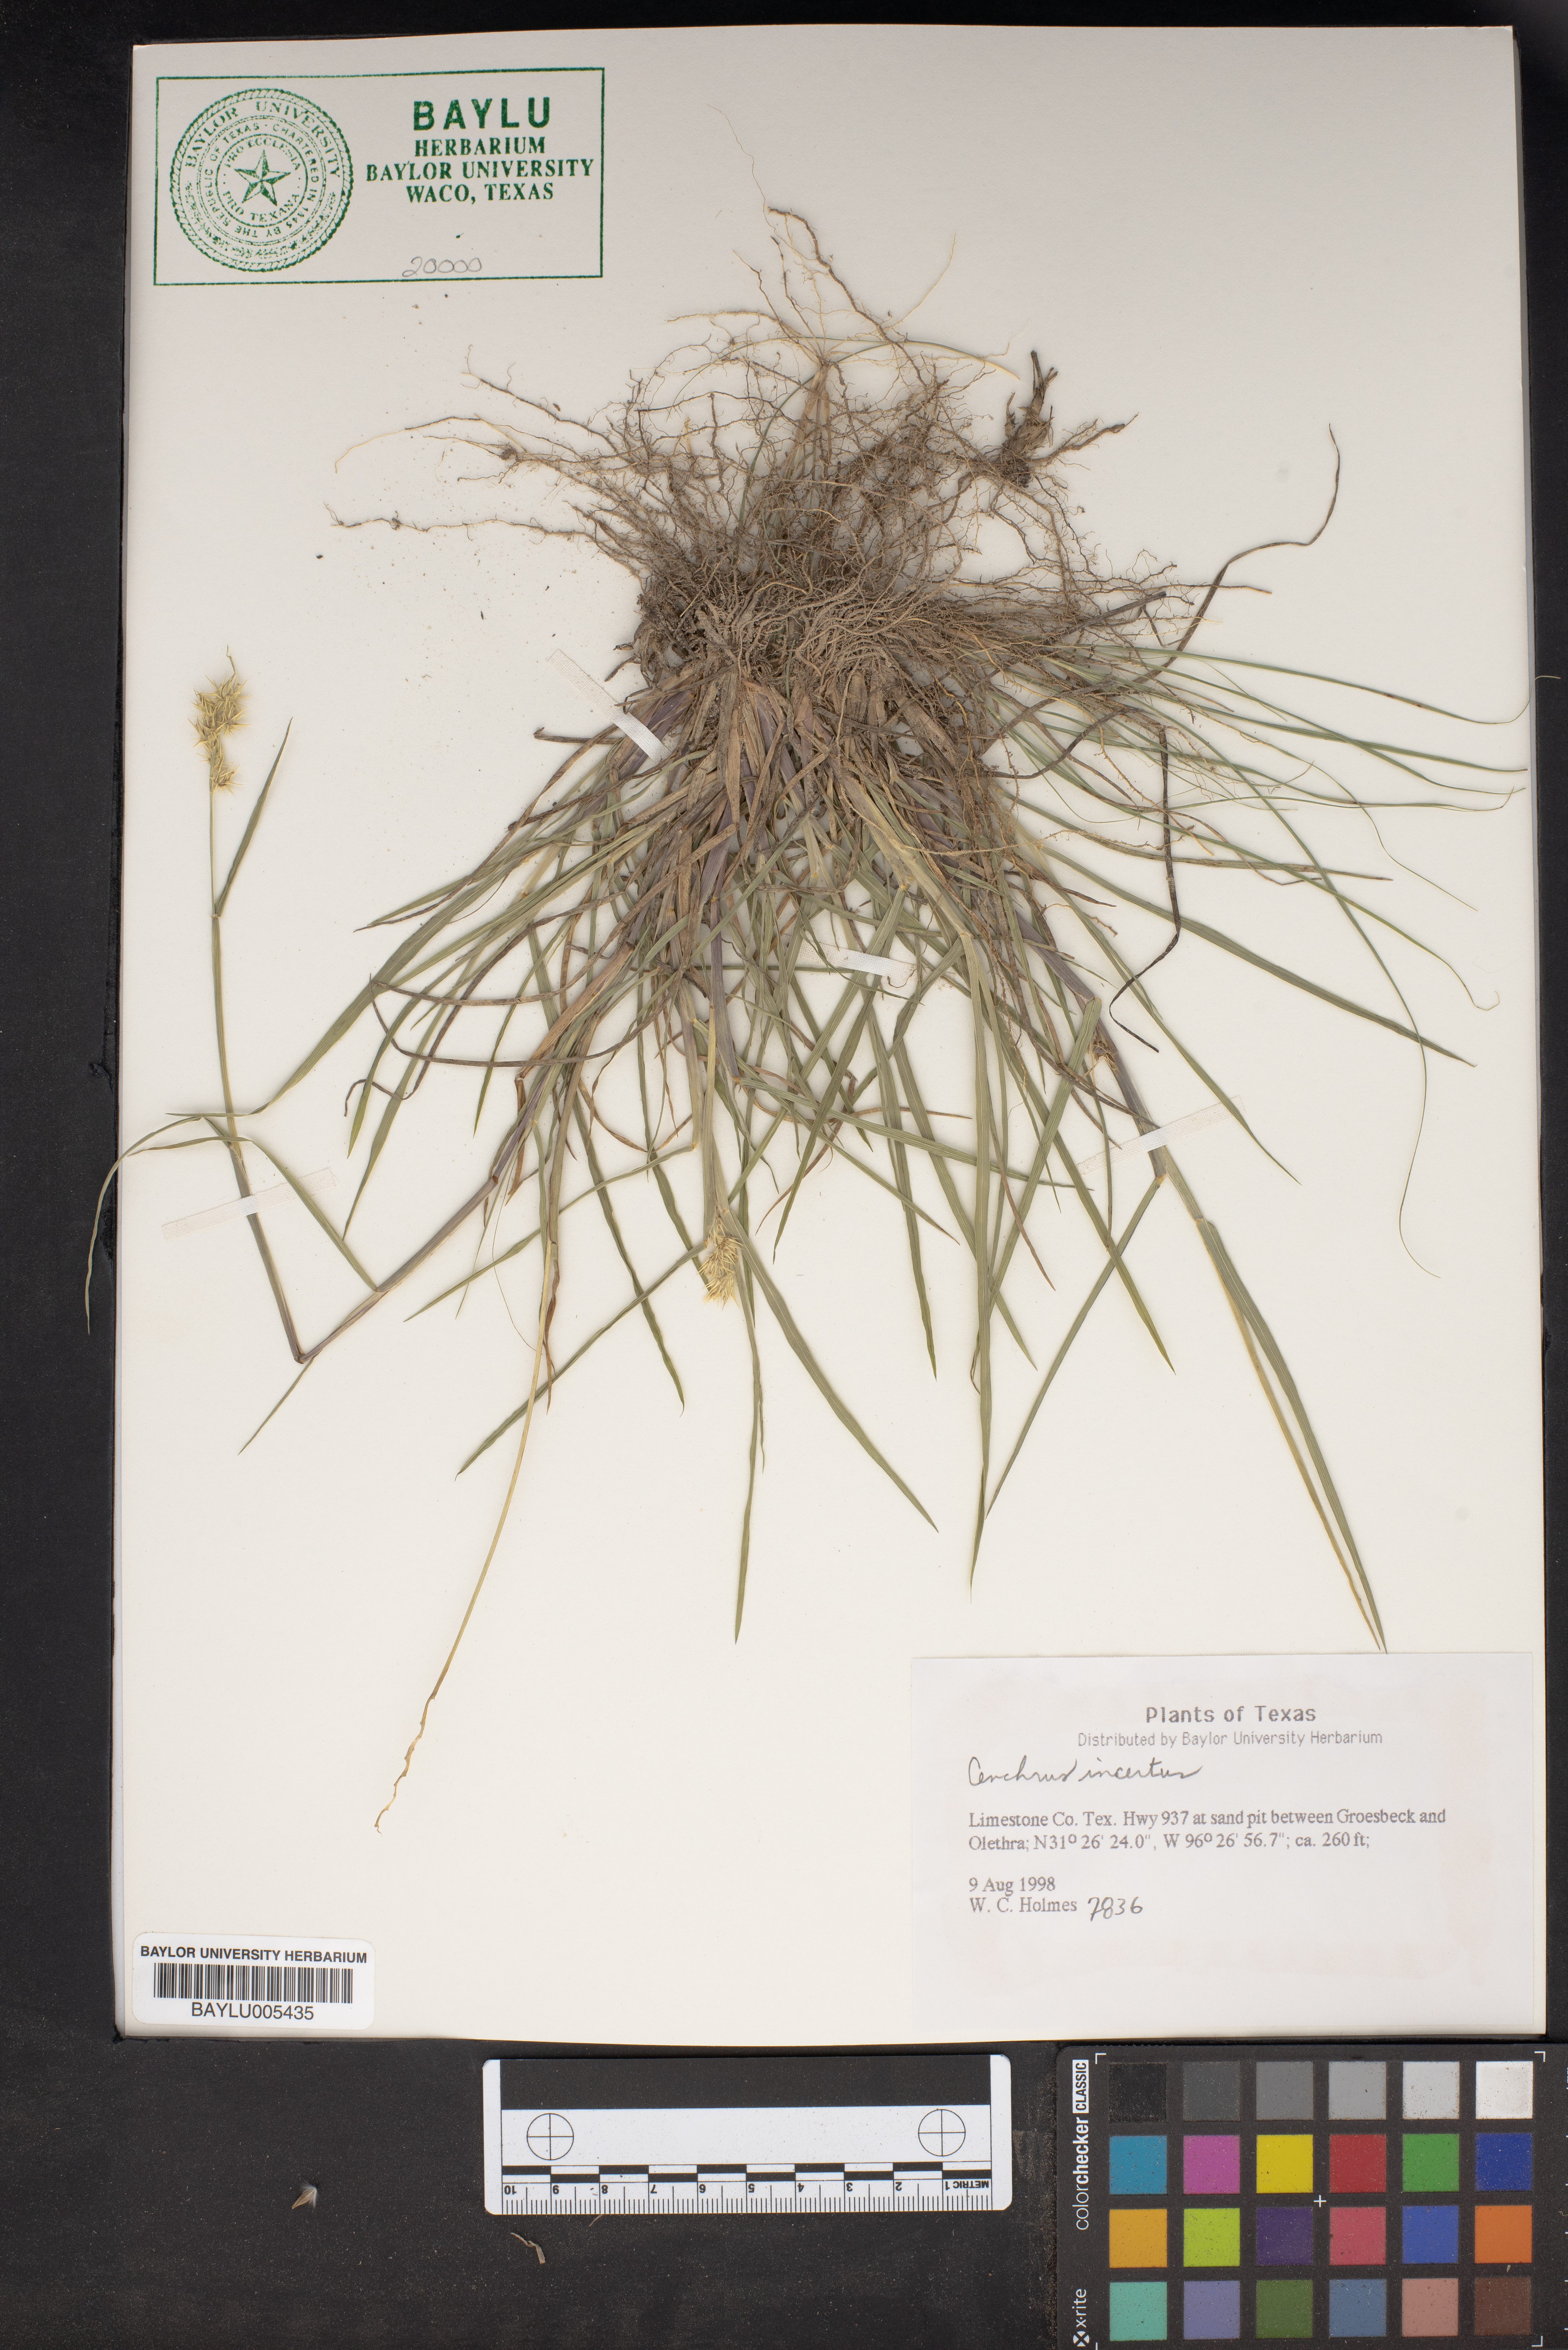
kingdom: Plantae
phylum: Tracheophyta
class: Liliopsida
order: Poales
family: Poaceae
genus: Cenchrus
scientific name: Cenchrus spinifex
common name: Coast sandbur
